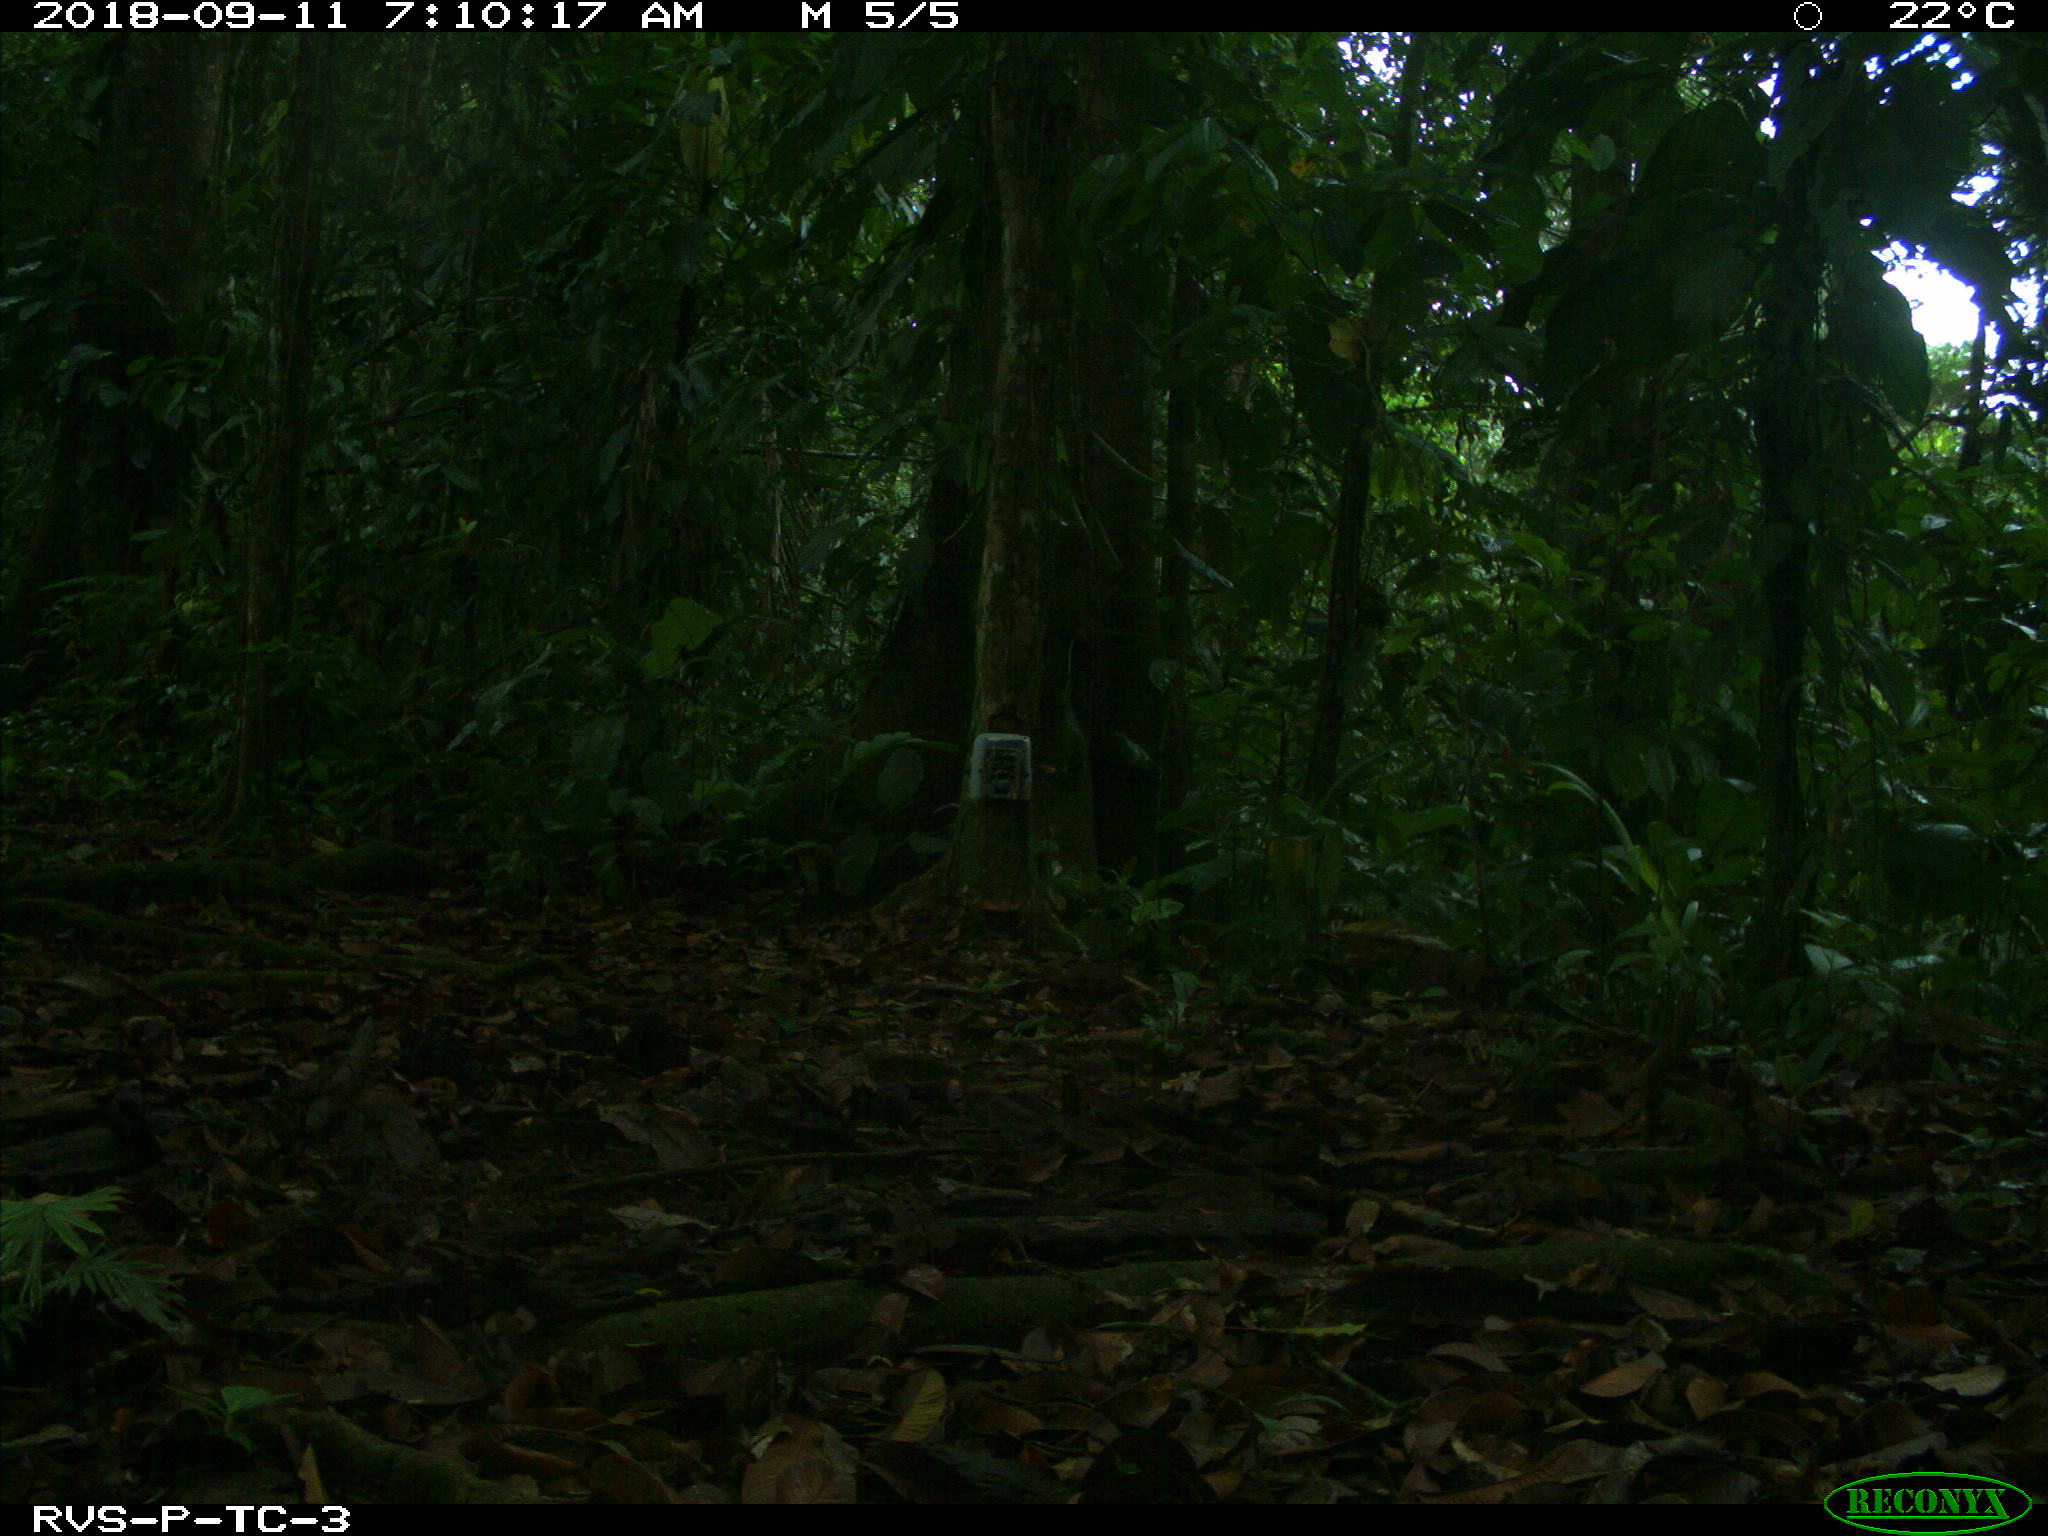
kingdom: Animalia
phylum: Chordata
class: Mammalia
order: Rodentia
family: Dasyproctidae
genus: Dasyprocta
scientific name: Dasyprocta punctata
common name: Central american agouti
